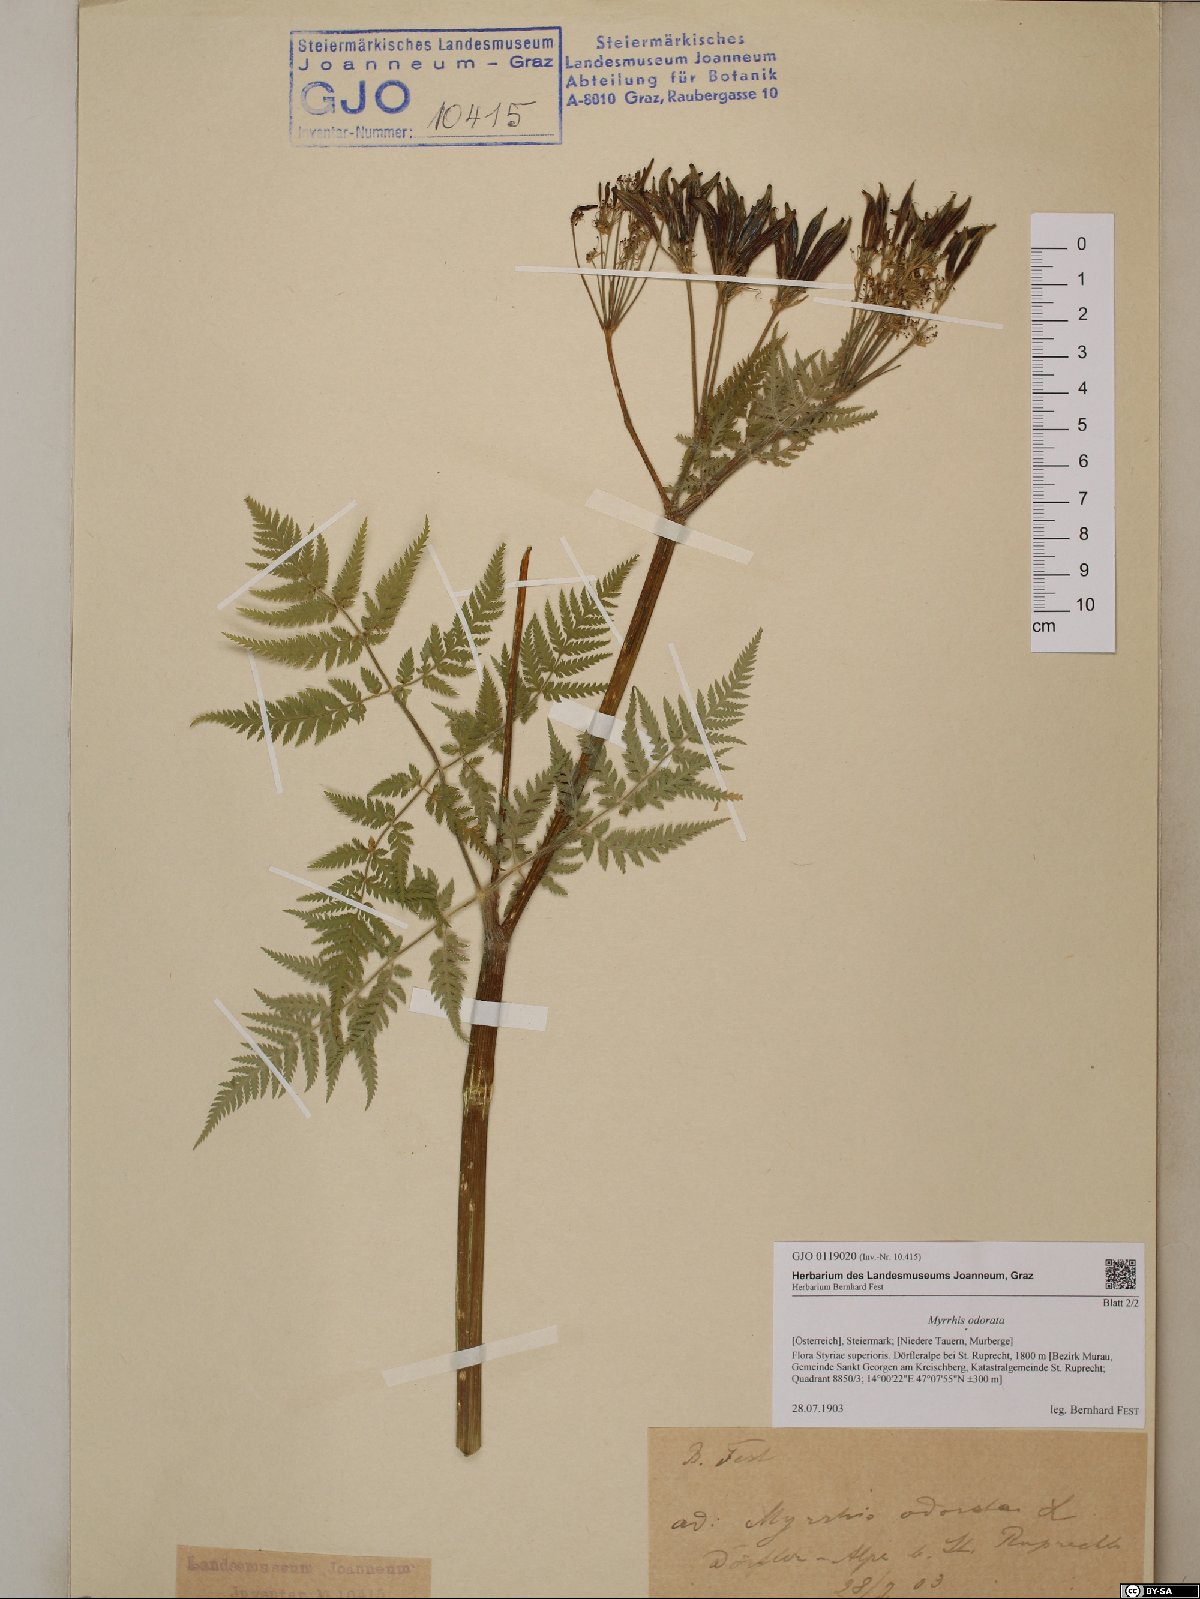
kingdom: Plantae
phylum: Tracheophyta
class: Magnoliopsida
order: Apiales
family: Apiaceae
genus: Myrrhis
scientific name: Myrrhis odorata
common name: Sweet cicely
